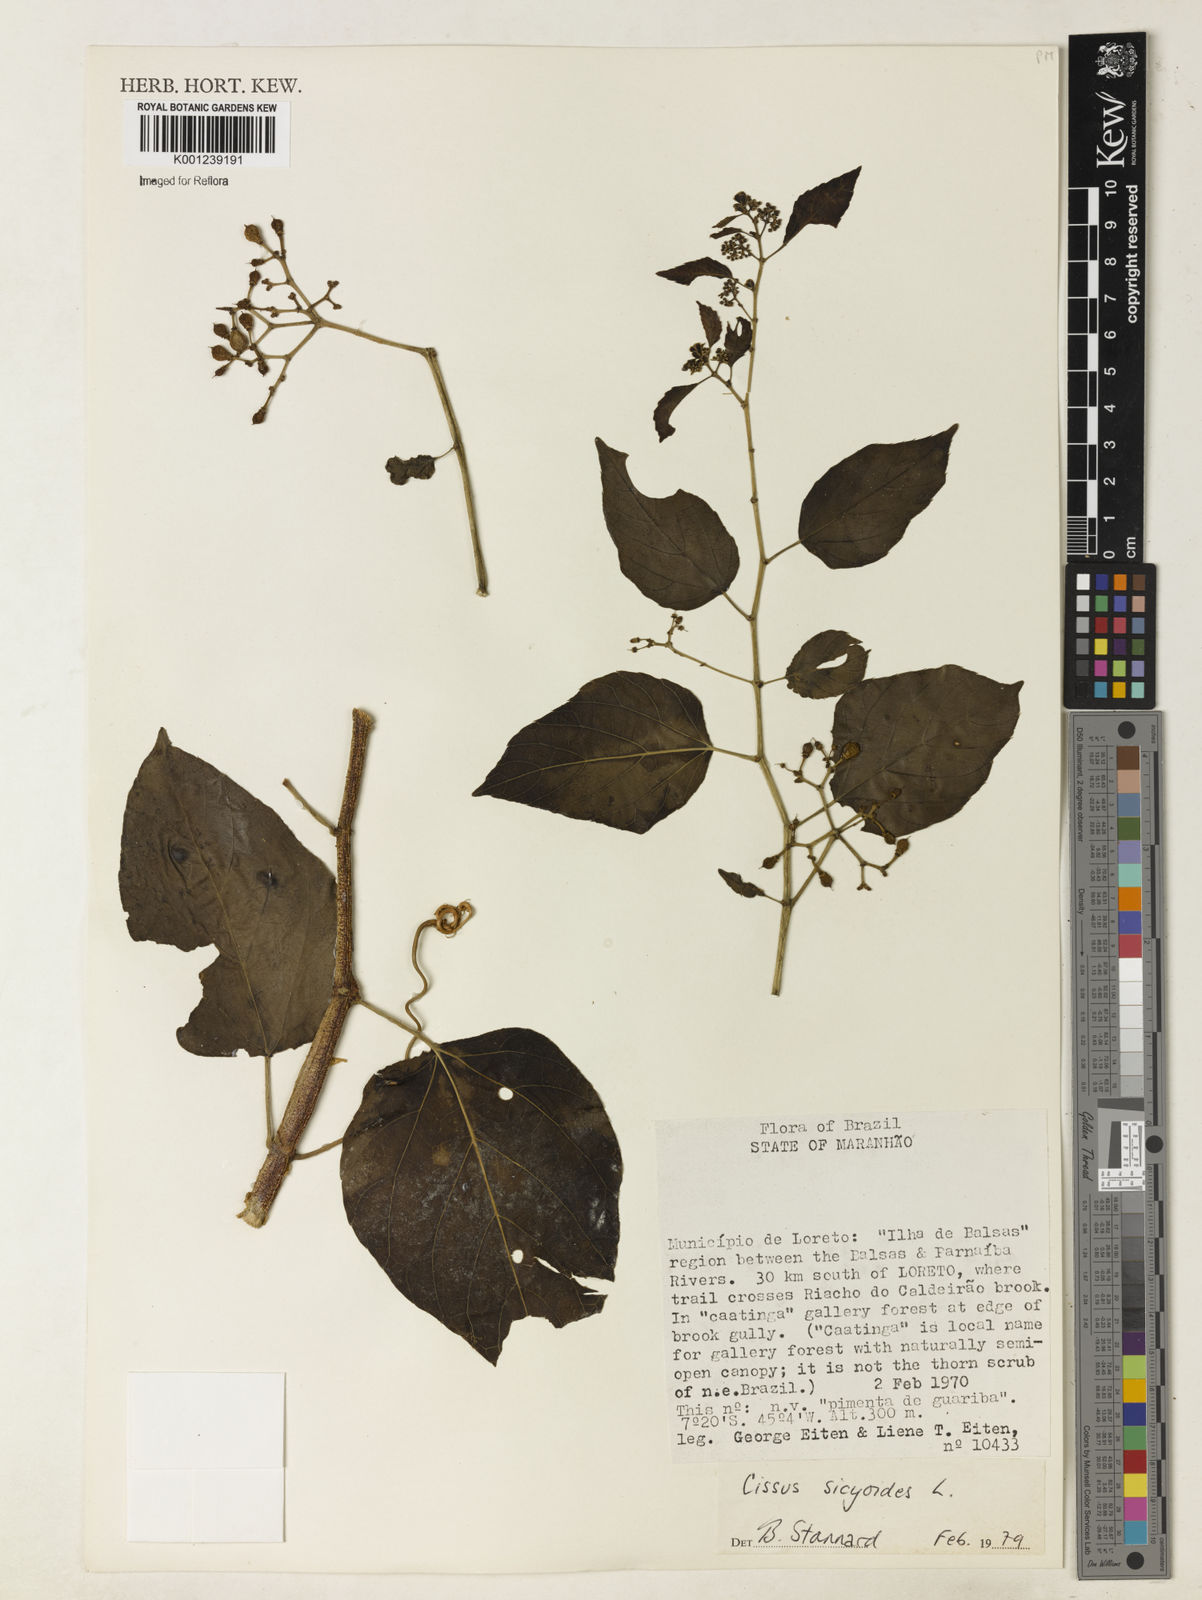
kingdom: Plantae
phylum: Tracheophyta
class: Magnoliopsida
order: Vitales
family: Vitaceae
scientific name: Vitaceae
